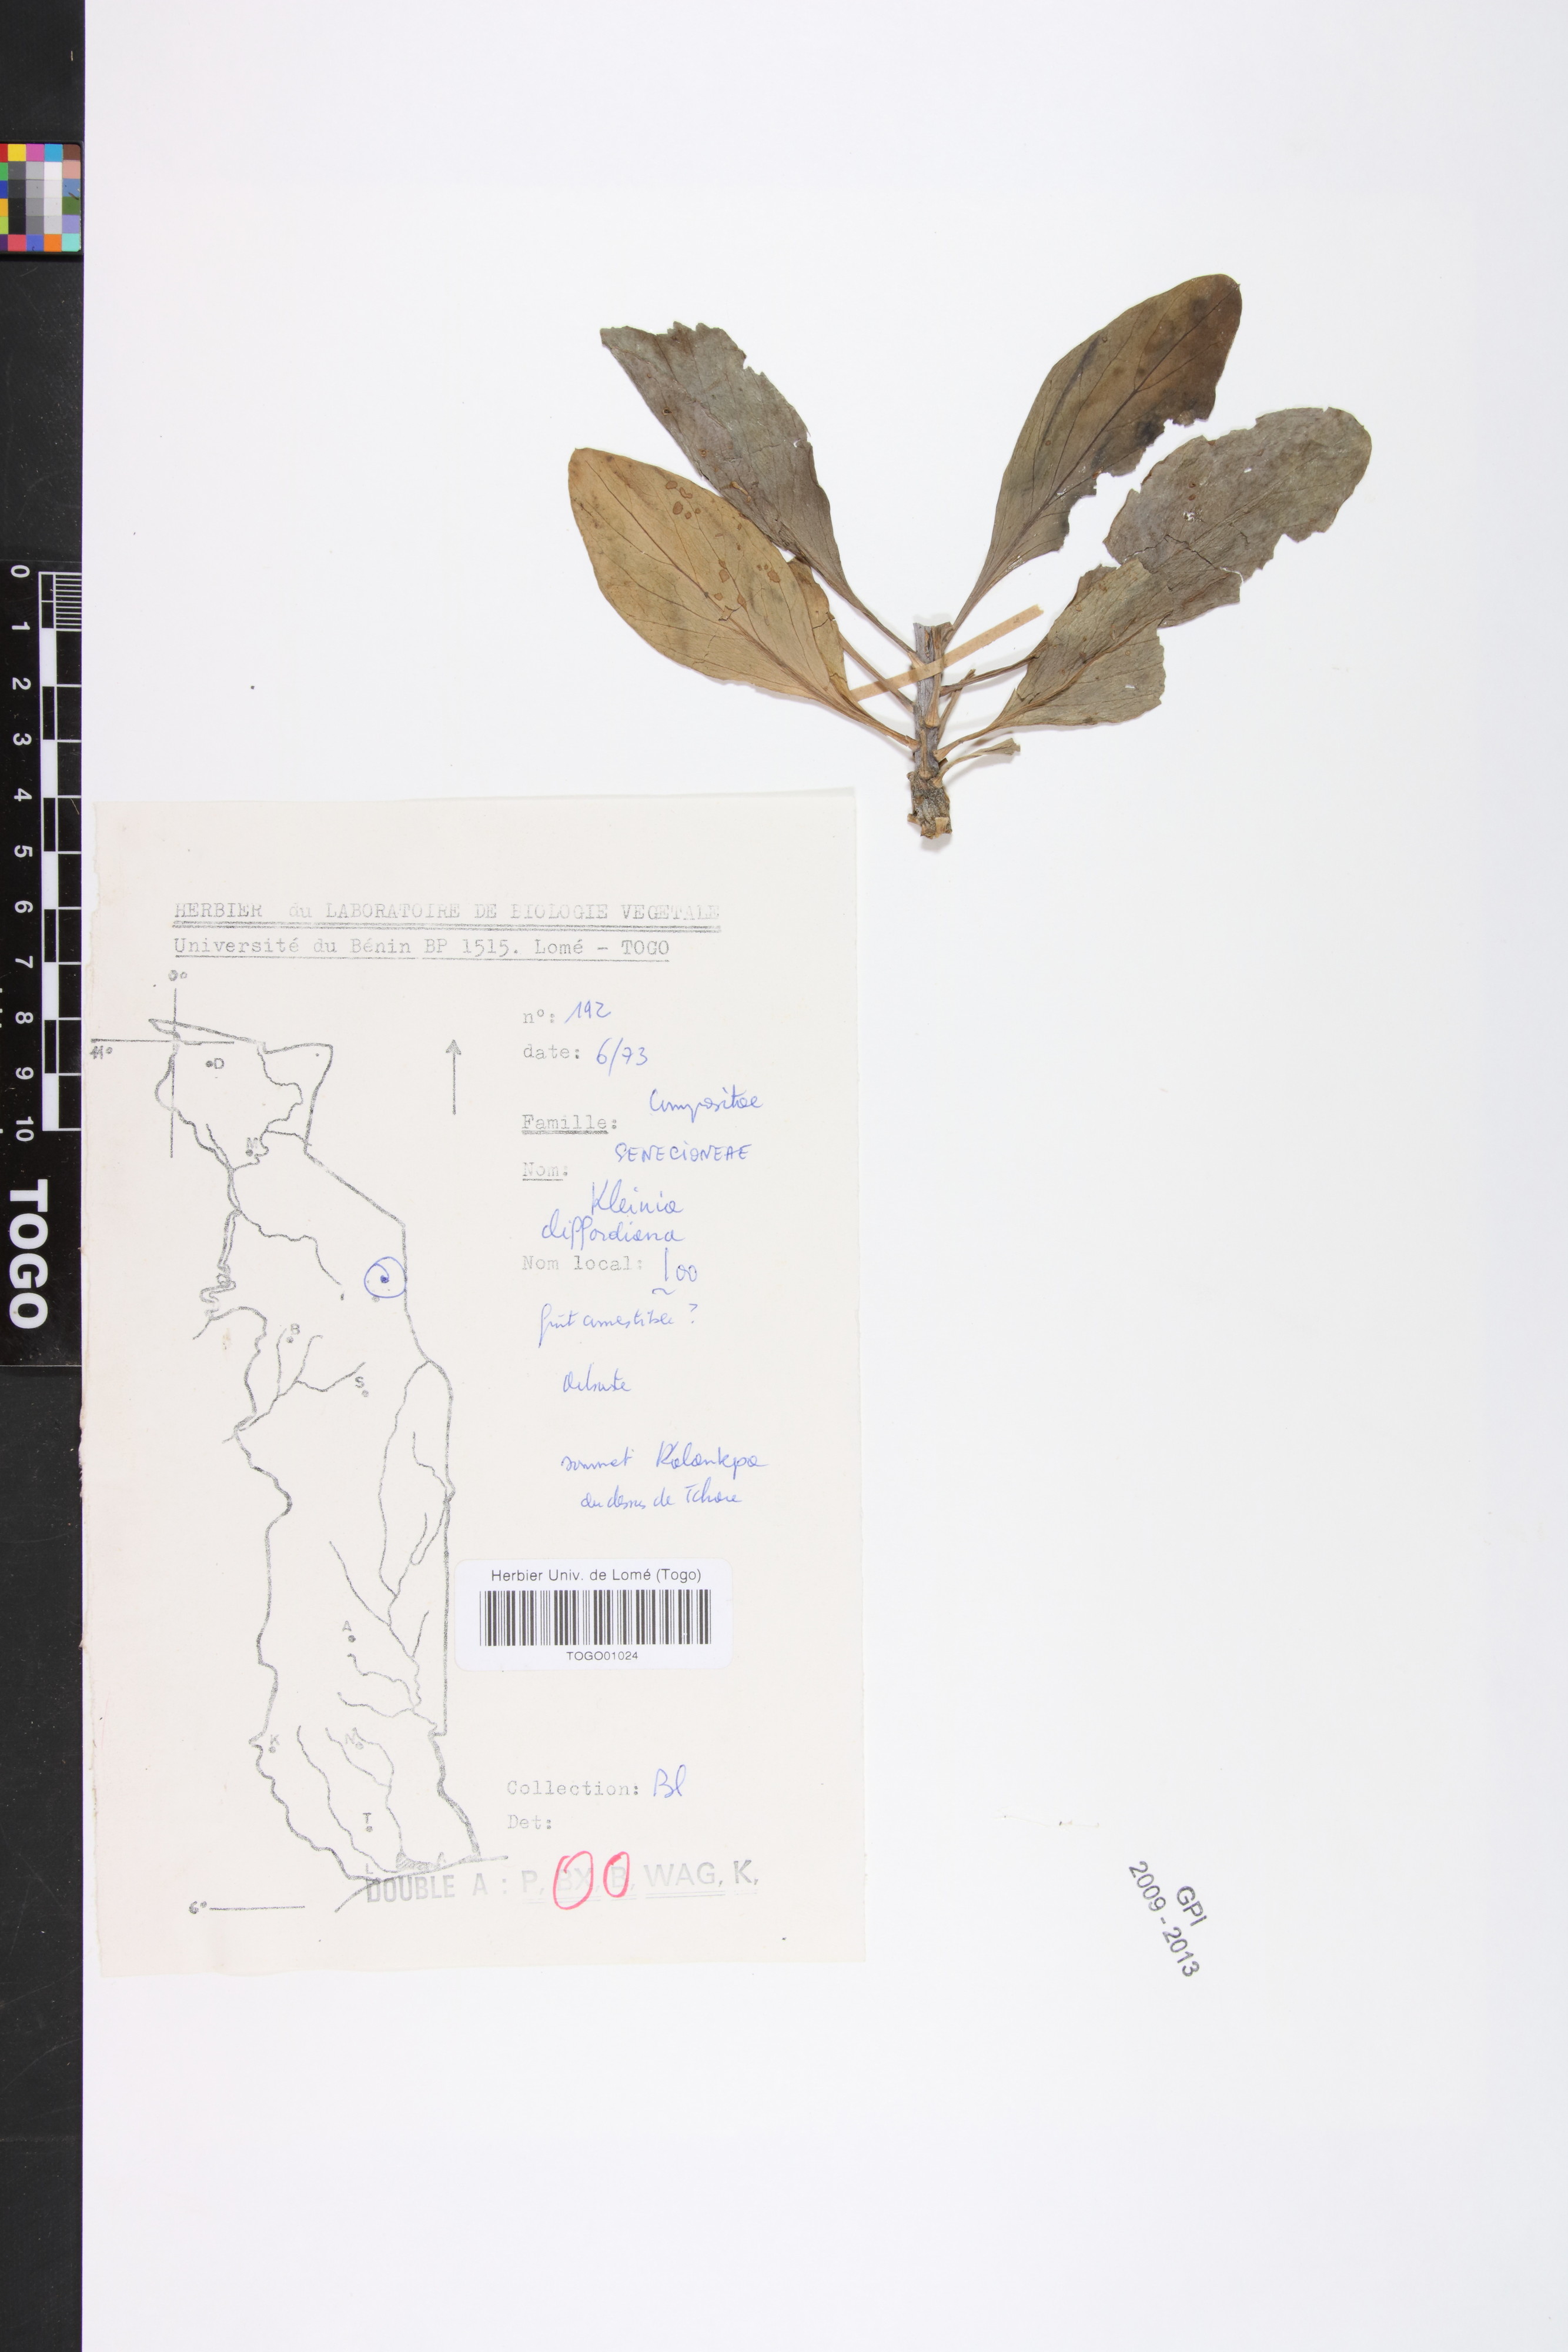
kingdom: Plantae
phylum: Tracheophyta
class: Magnoliopsida
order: Asterales
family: Asteraceae
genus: Kleinia
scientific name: Kleinia cliffordiana
